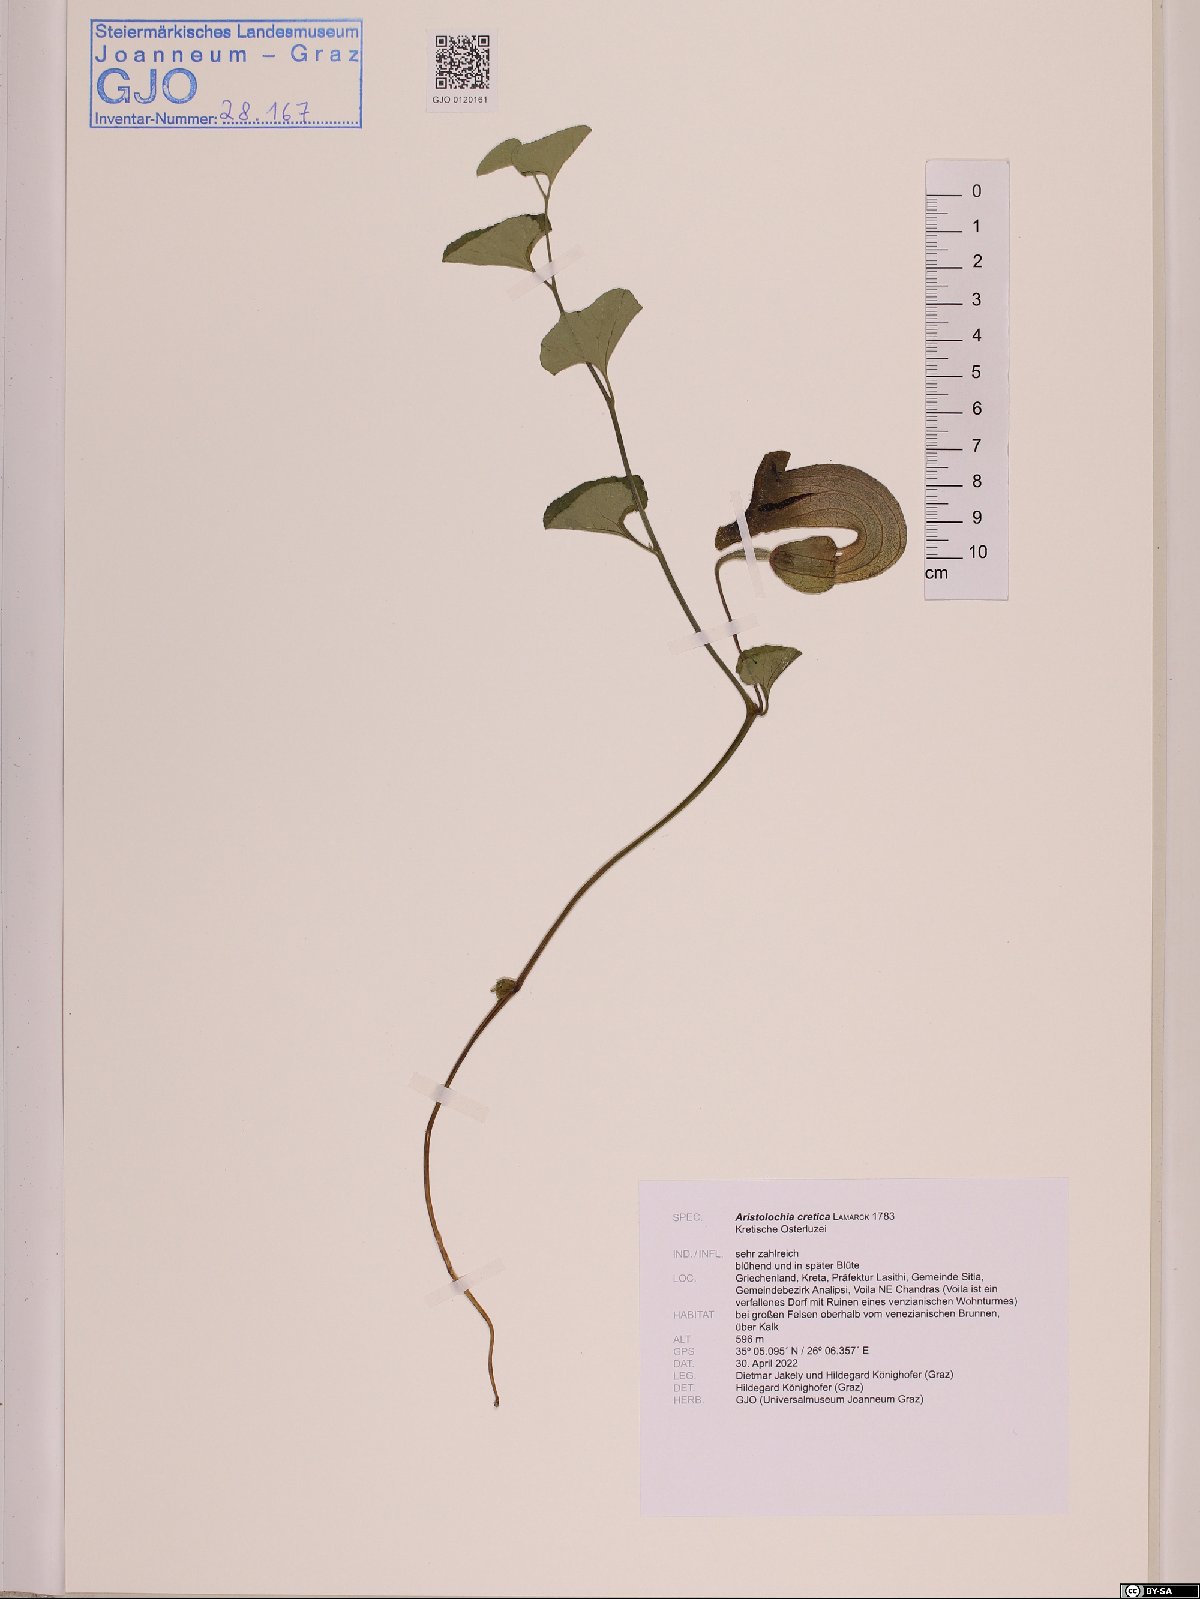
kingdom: Plantae
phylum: Tracheophyta
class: Magnoliopsida
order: Piperales
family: Aristolochiaceae
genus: Aristolochia
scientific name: Aristolochia cretica
